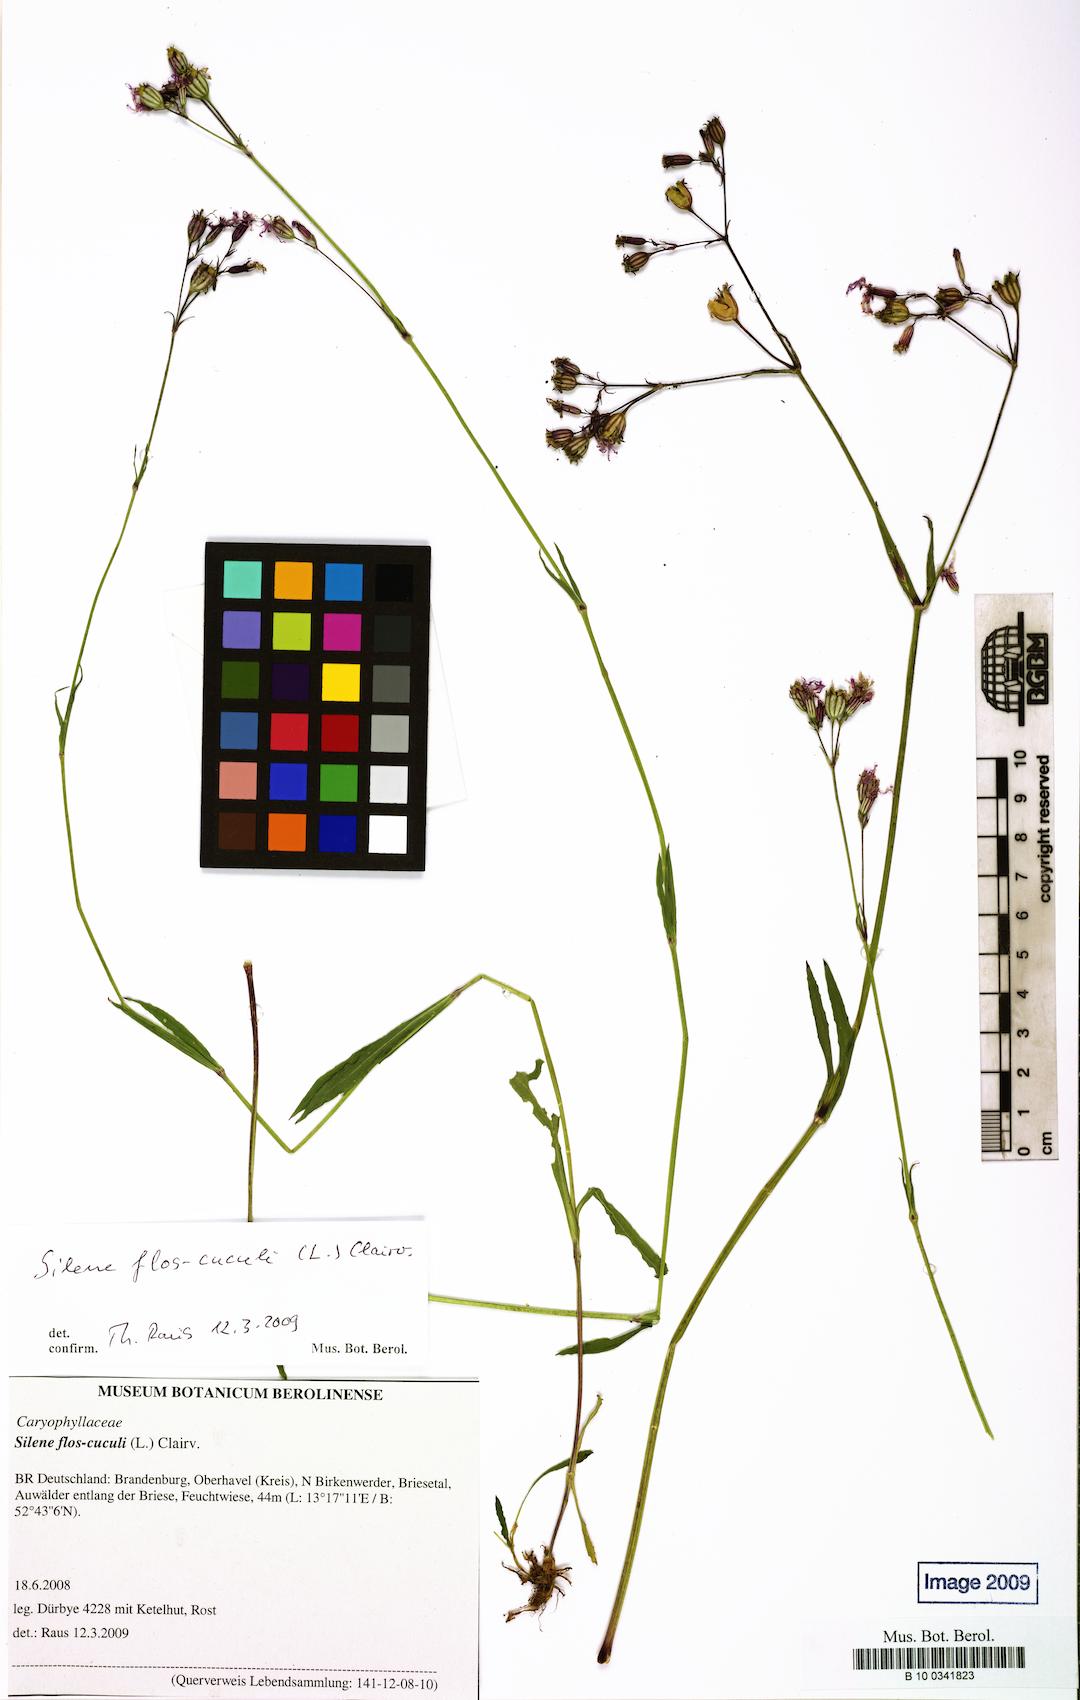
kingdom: Plantae
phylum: Tracheophyta
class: Magnoliopsida
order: Caryophyllales
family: Caryophyllaceae
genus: Silene
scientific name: Silene flos-cuculi
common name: Ragged-robin
